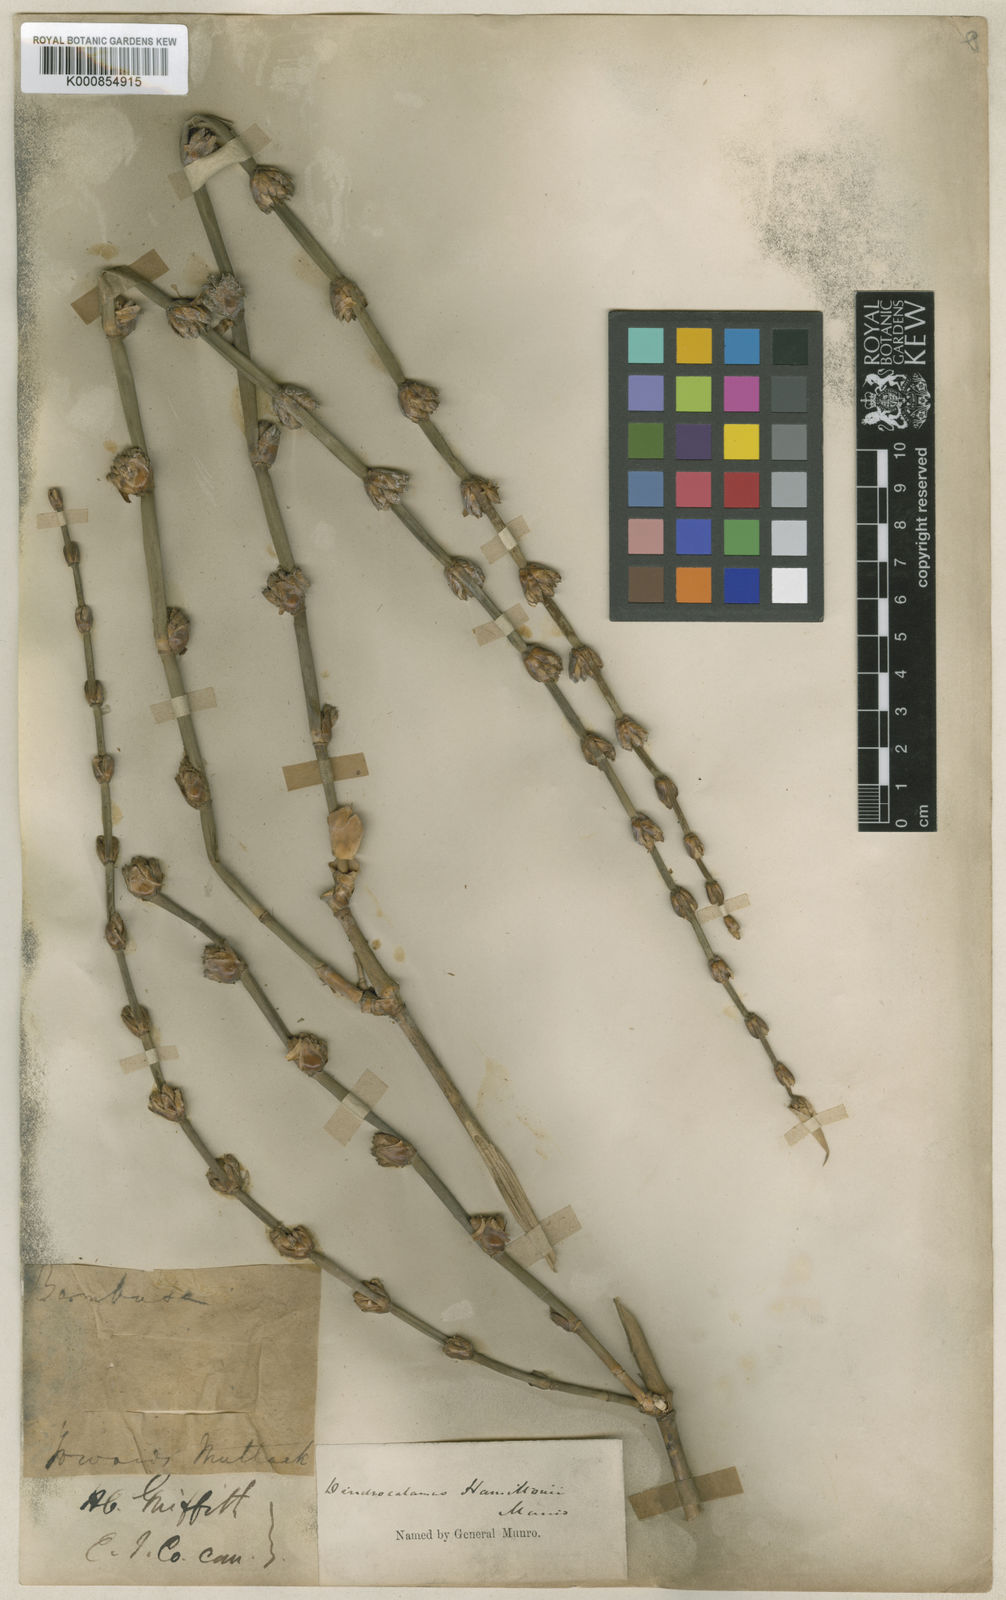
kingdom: Plantae
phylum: Tracheophyta
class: Liliopsida
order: Poales
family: Poaceae
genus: Dendrocalamus
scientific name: Dendrocalamus hamiltonii
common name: Tama bamboo
